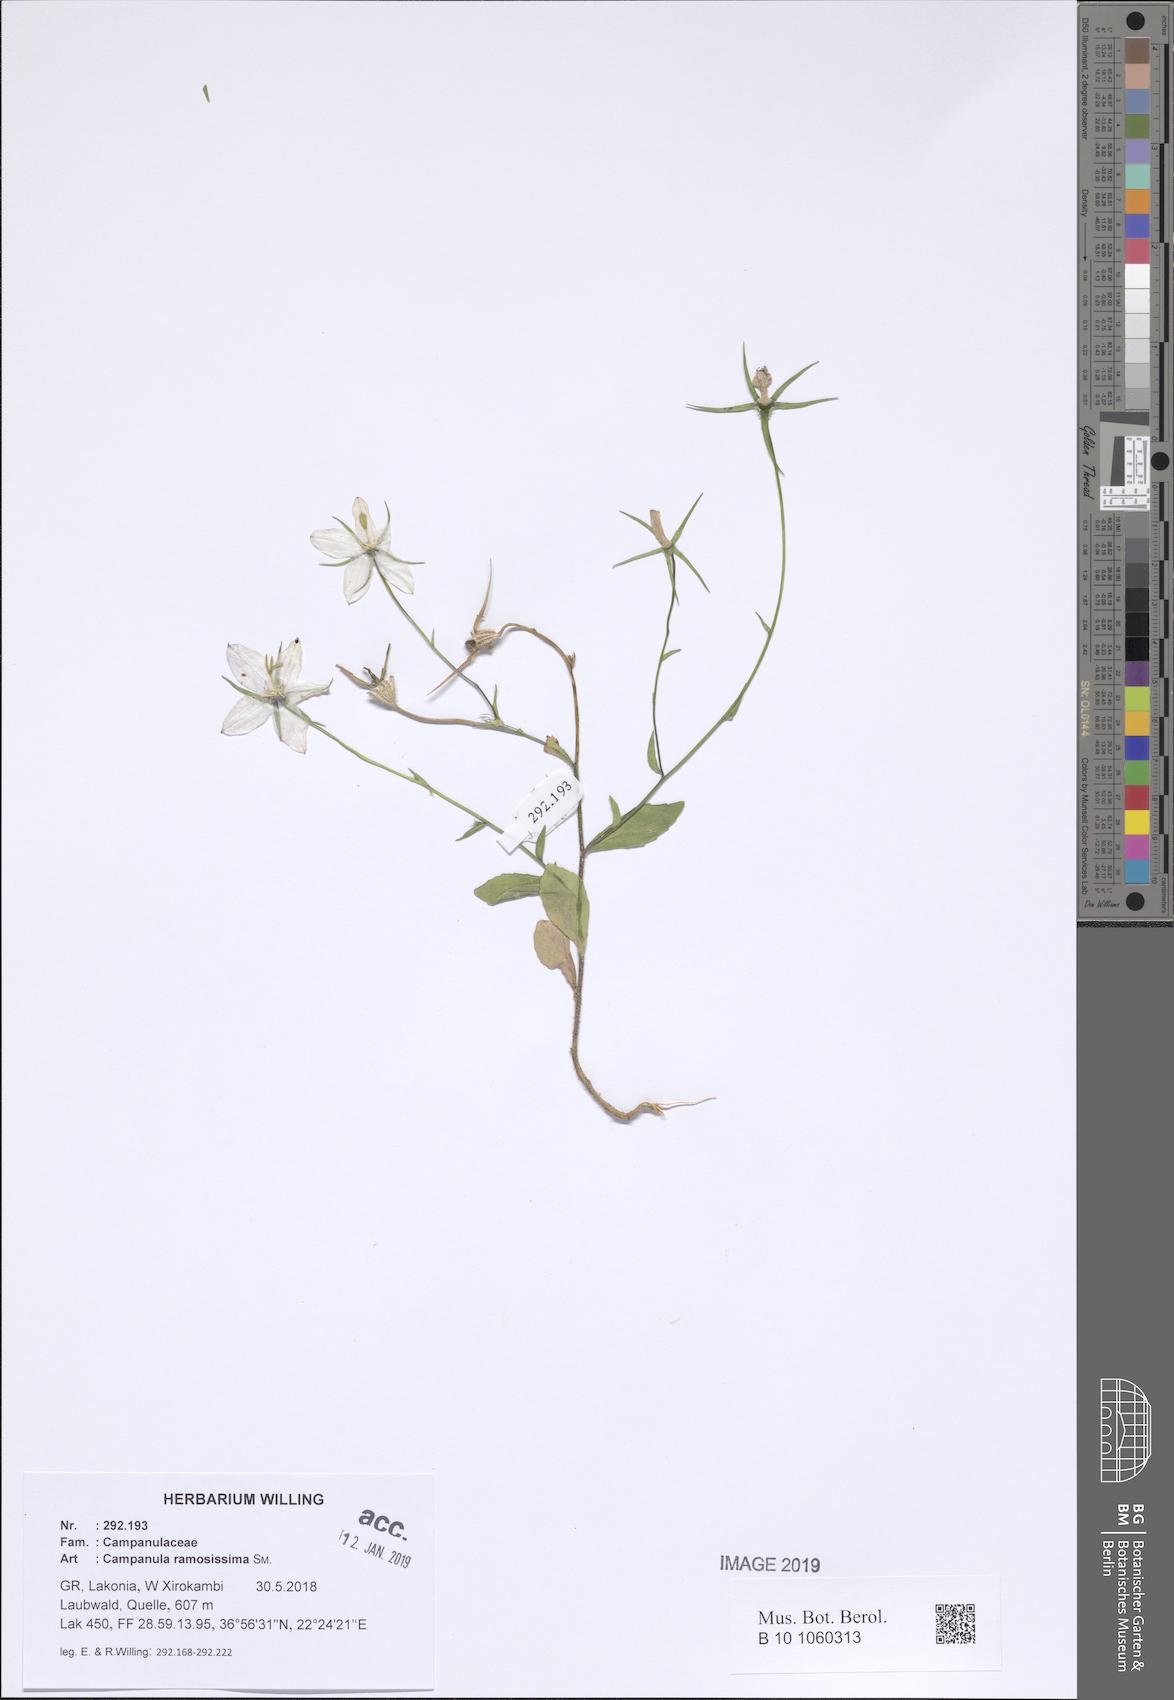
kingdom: Plantae
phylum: Tracheophyta
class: Magnoliopsida
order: Asterales
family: Campanulaceae
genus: Campanula
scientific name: Campanula ramosissima
